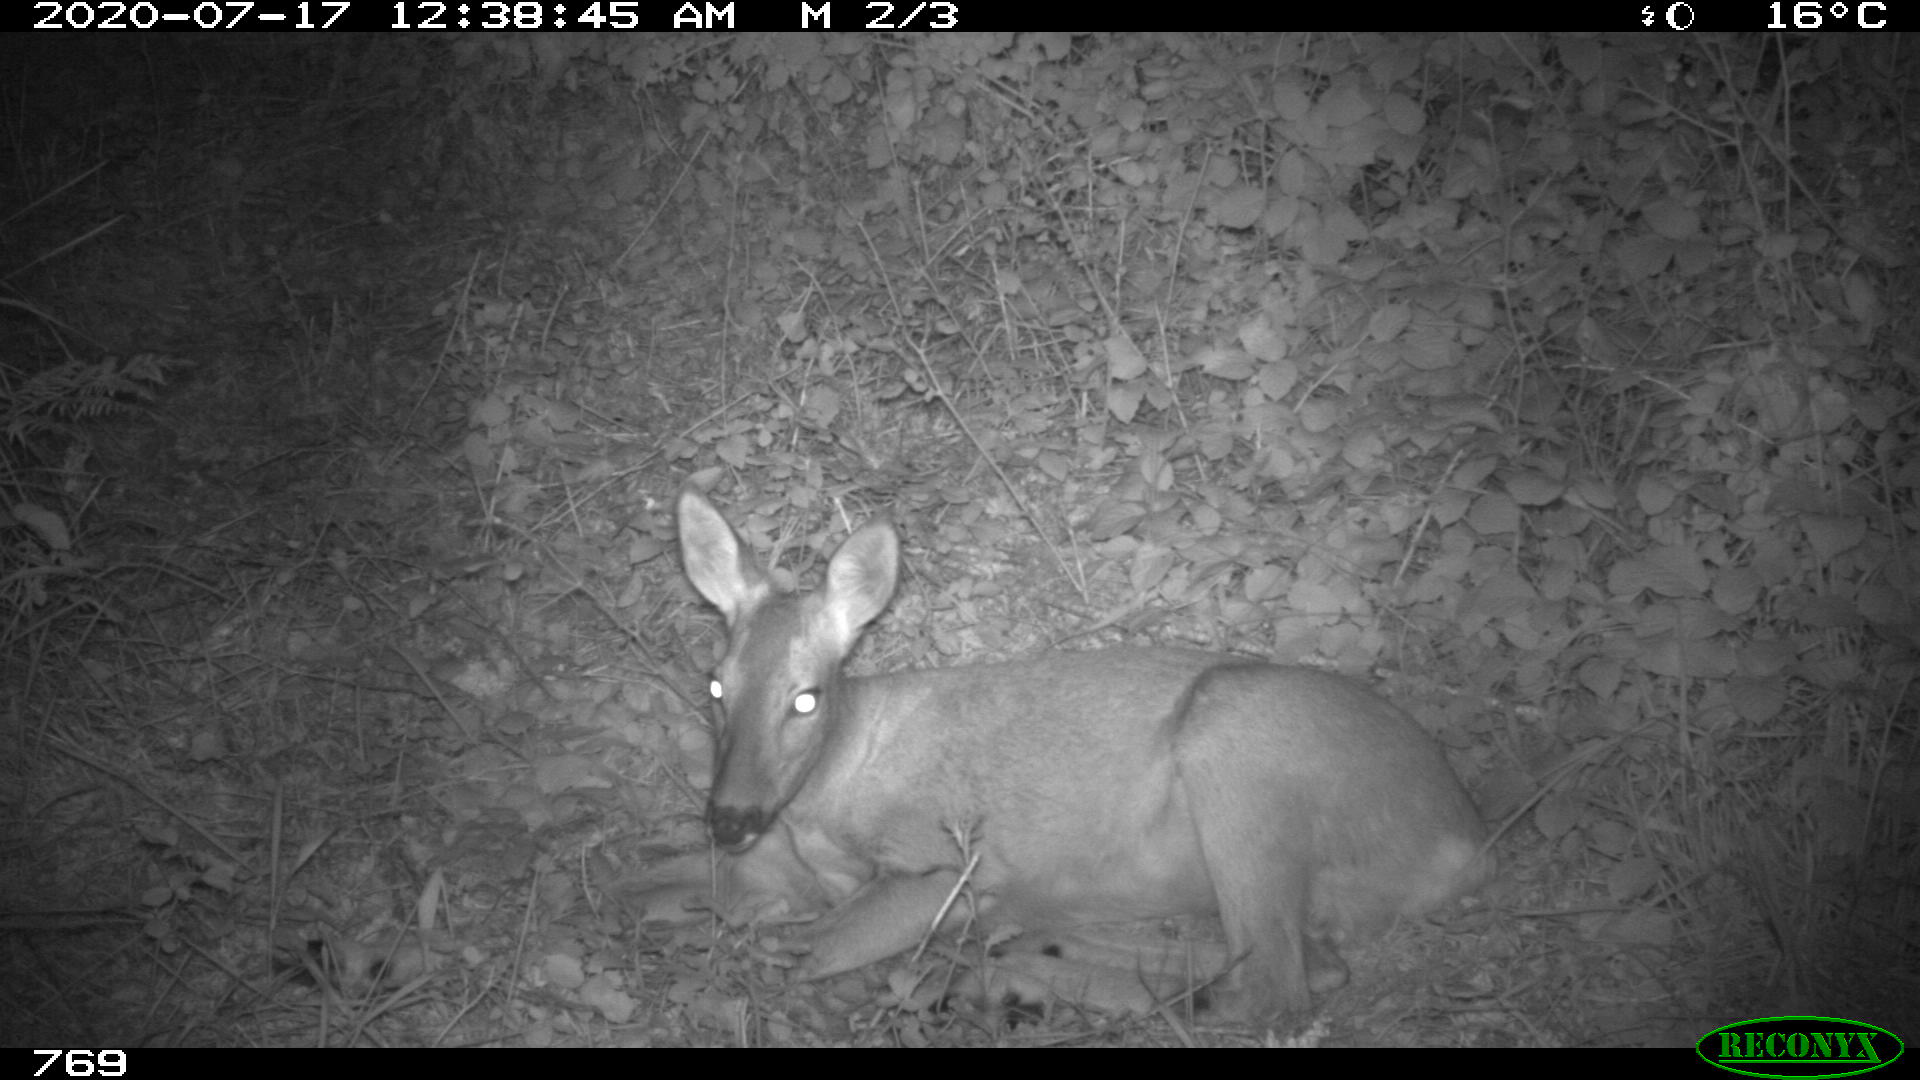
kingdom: Animalia
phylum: Chordata
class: Mammalia
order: Artiodactyla
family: Cervidae
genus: Capreolus
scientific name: Capreolus capreolus
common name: Western roe deer
